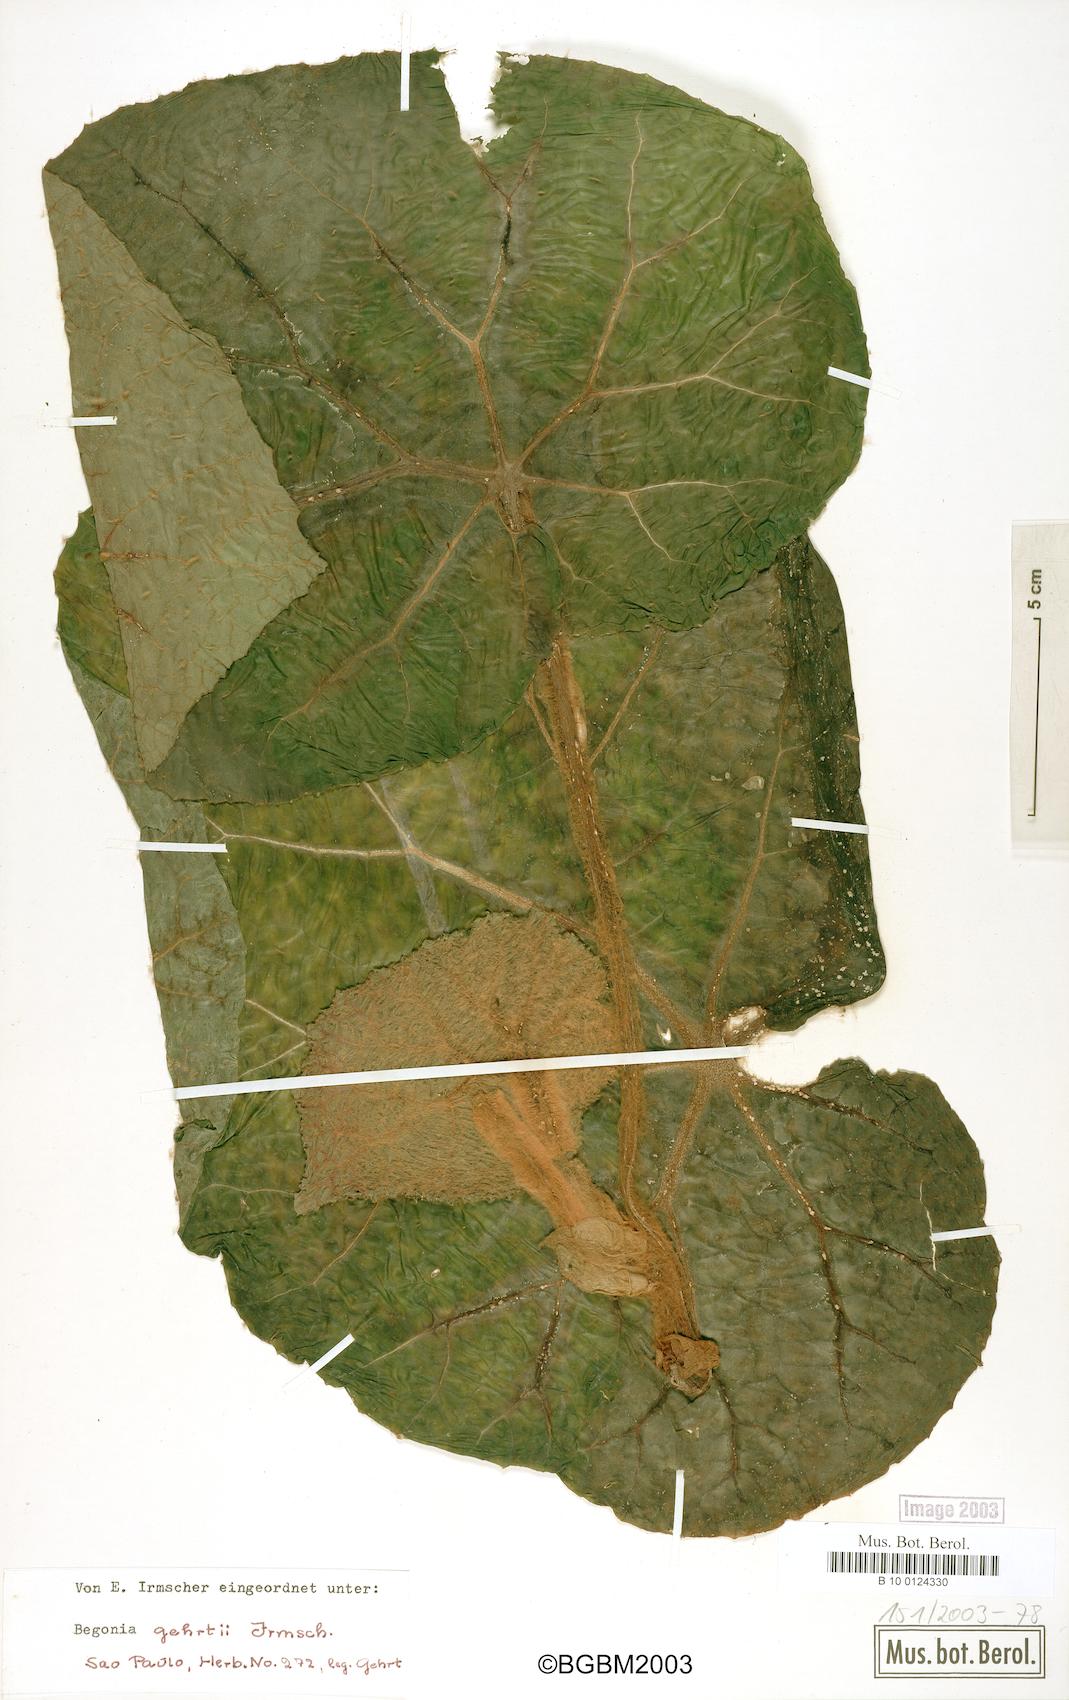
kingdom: Plantae
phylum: Tracheophyta
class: Magnoliopsida
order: Cucurbitales
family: Begoniaceae
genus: Begonia
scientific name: Begonia gehrtii
